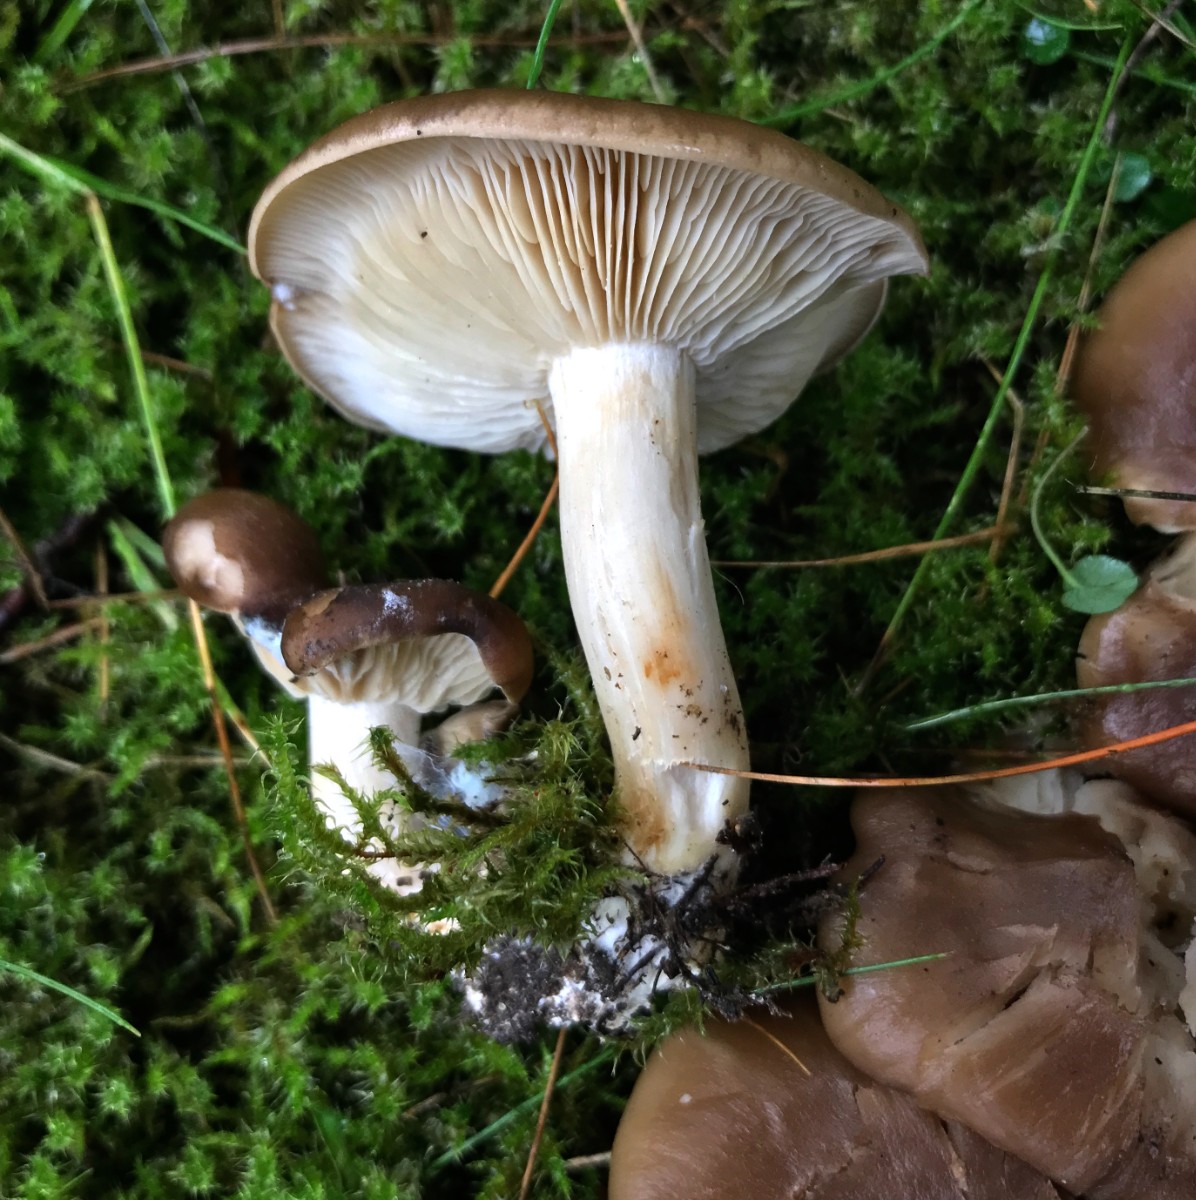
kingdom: Fungi
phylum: Basidiomycota
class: Agaricomycetes
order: Agaricales
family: Lyophyllaceae
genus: Lyophyllum
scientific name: Lyophyllum decastes
